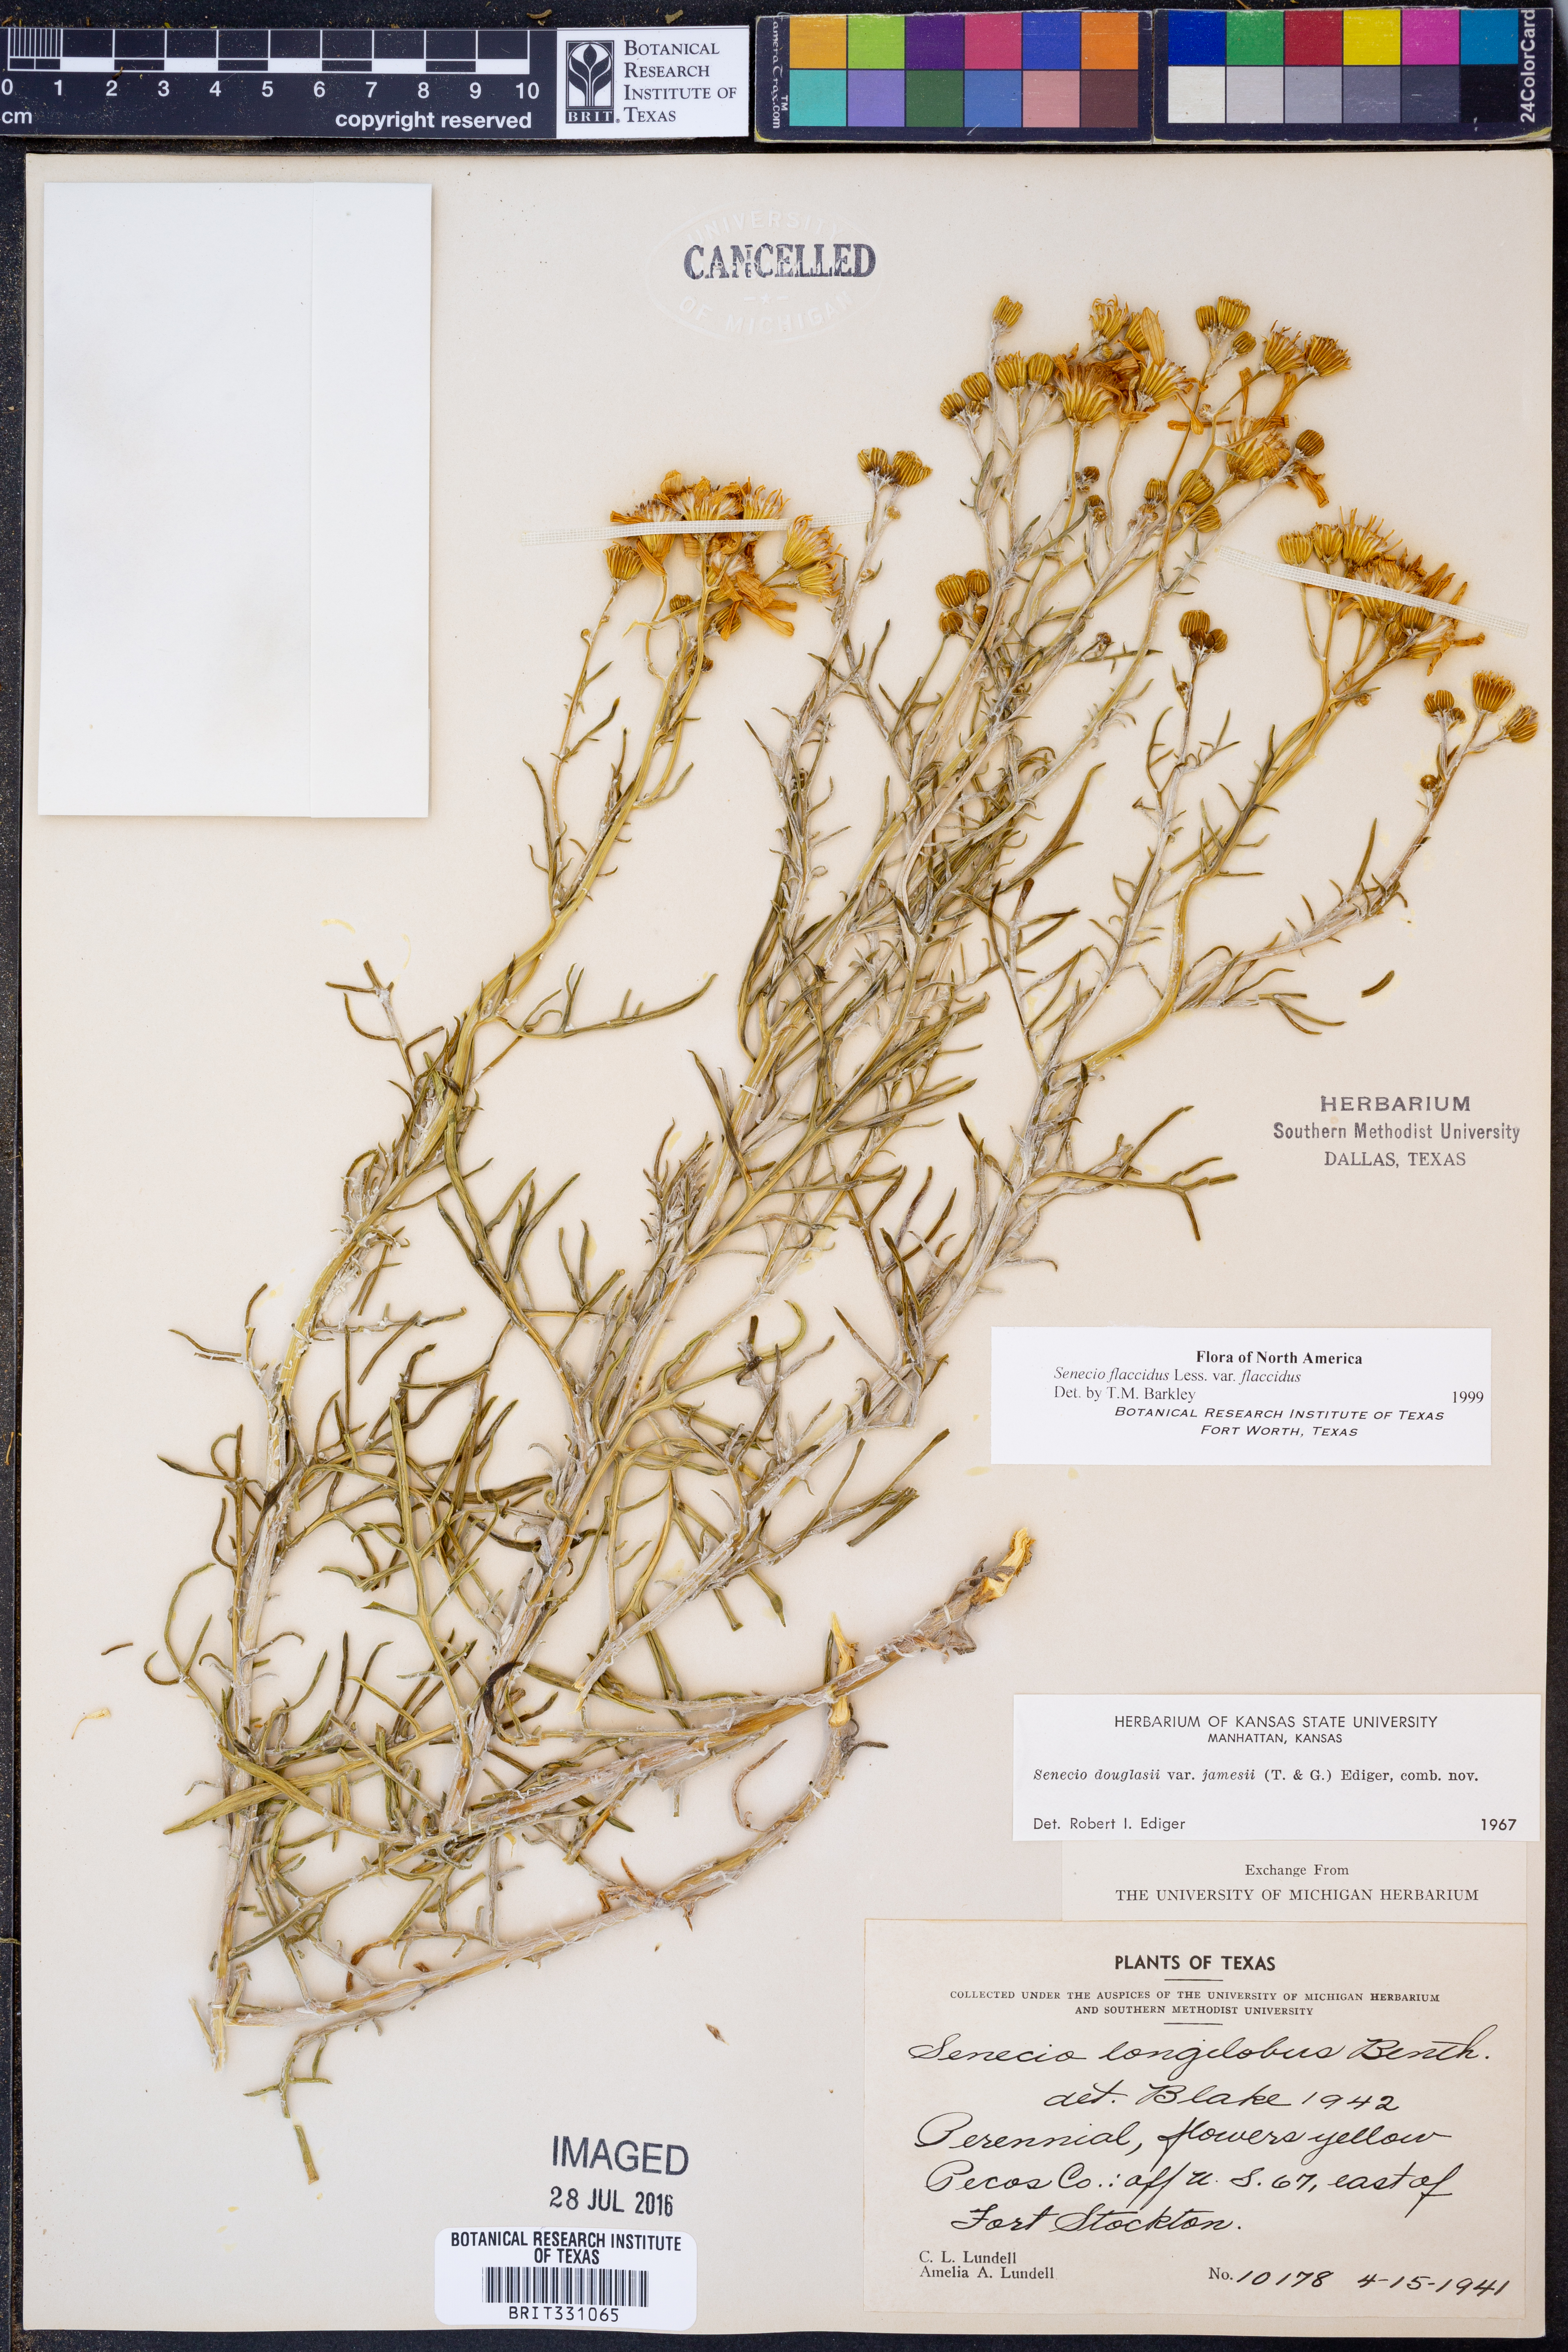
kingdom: Plantae
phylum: Tracheophyta
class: Magnoliopsida
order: Asterales
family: Asteraceae
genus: Senecio
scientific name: Senecio flaccidus
